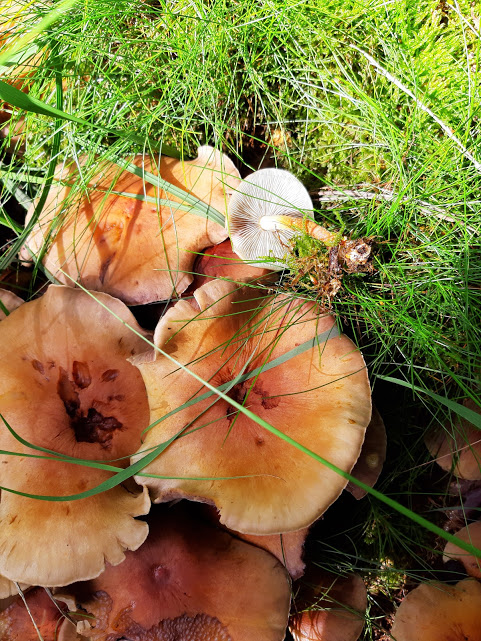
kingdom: Fungi
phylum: Basidiomycota
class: Agaricomycetes
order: Agaricales
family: Strophariaceae
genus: Hypholoma
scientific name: Hypholoma lateritium
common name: teglrød svovlhat
